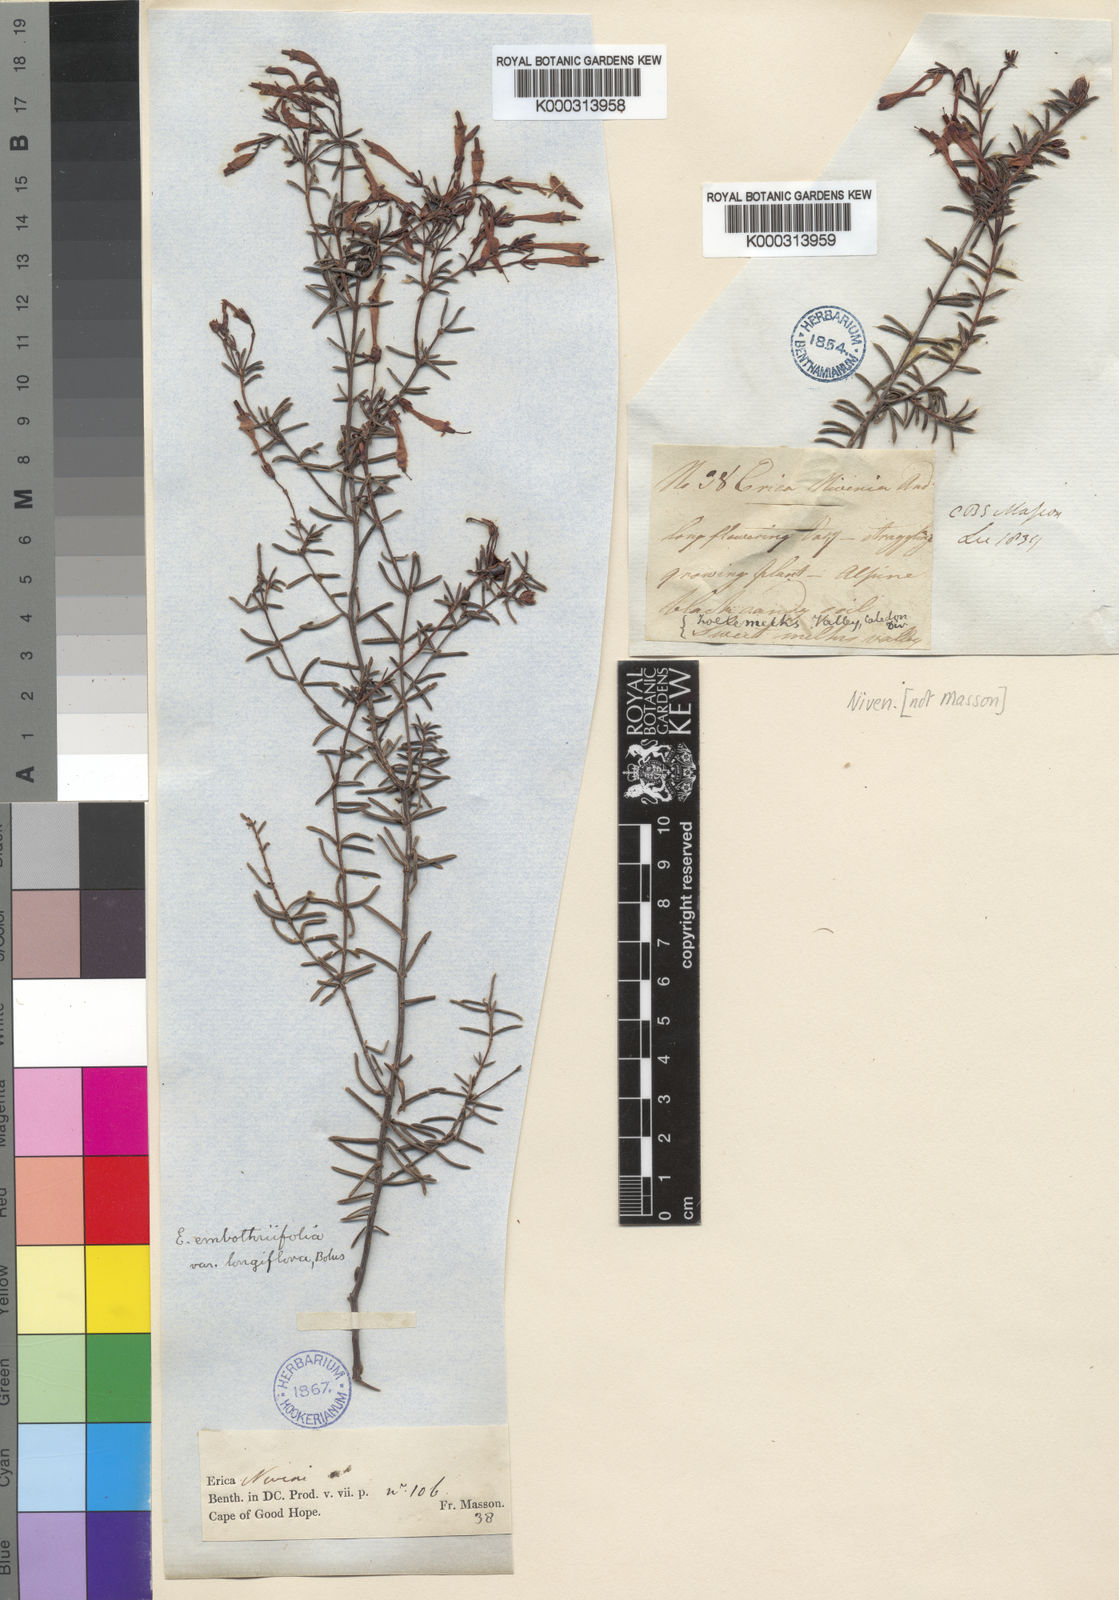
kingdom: Plantae
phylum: Tracheophyta
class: Magnoliopsida
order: Ericales
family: Ericaceae
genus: Erica
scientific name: Erica embothriifolia
